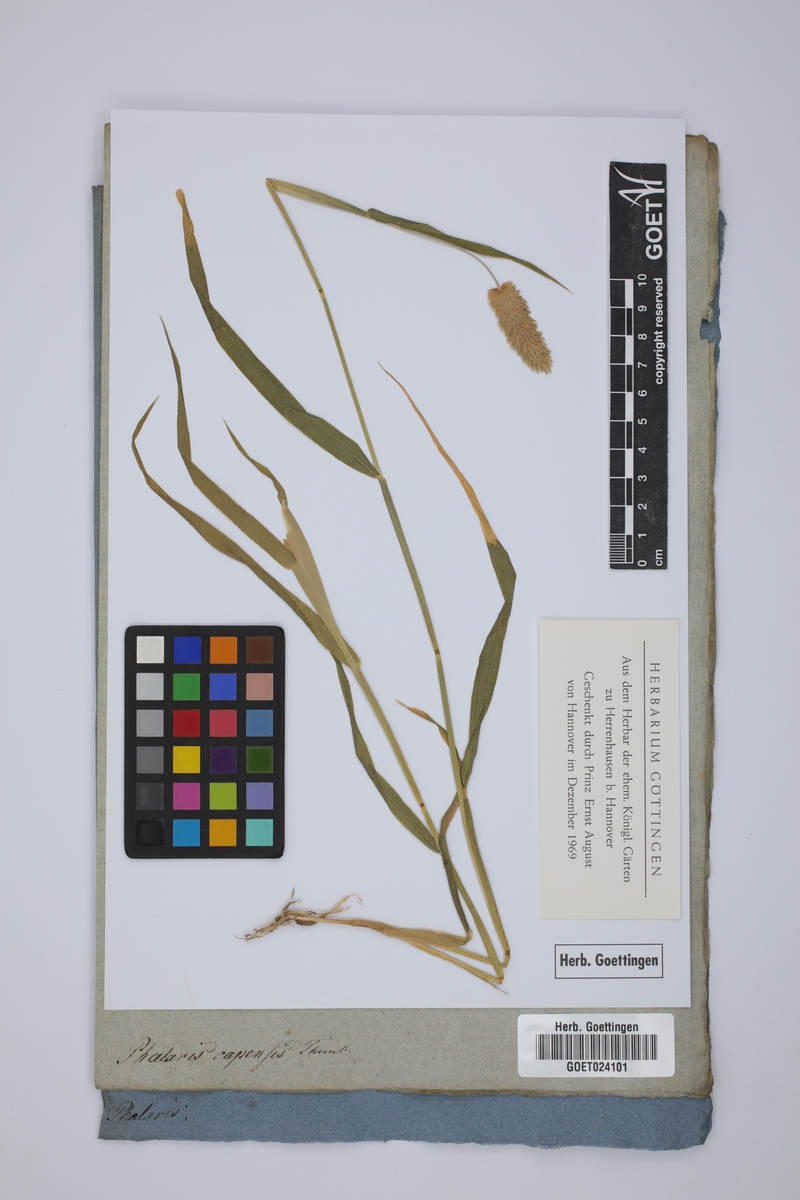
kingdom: Plantae
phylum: Tracheophyta
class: Liliopsida
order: Poales
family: Poaceae
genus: Phalaris
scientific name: Phalaris minor
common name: Littleseed canarygrass
